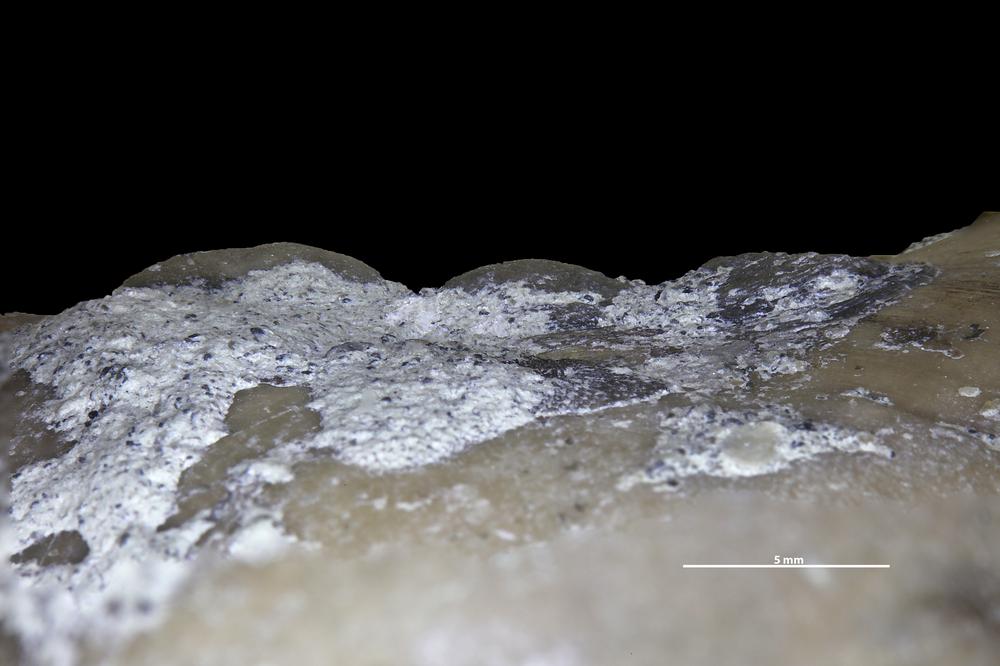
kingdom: Animalia
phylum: Brachiopoda
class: Craniata
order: Craniida
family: Craniidae
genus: Petrocrania
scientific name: Petrocrania
